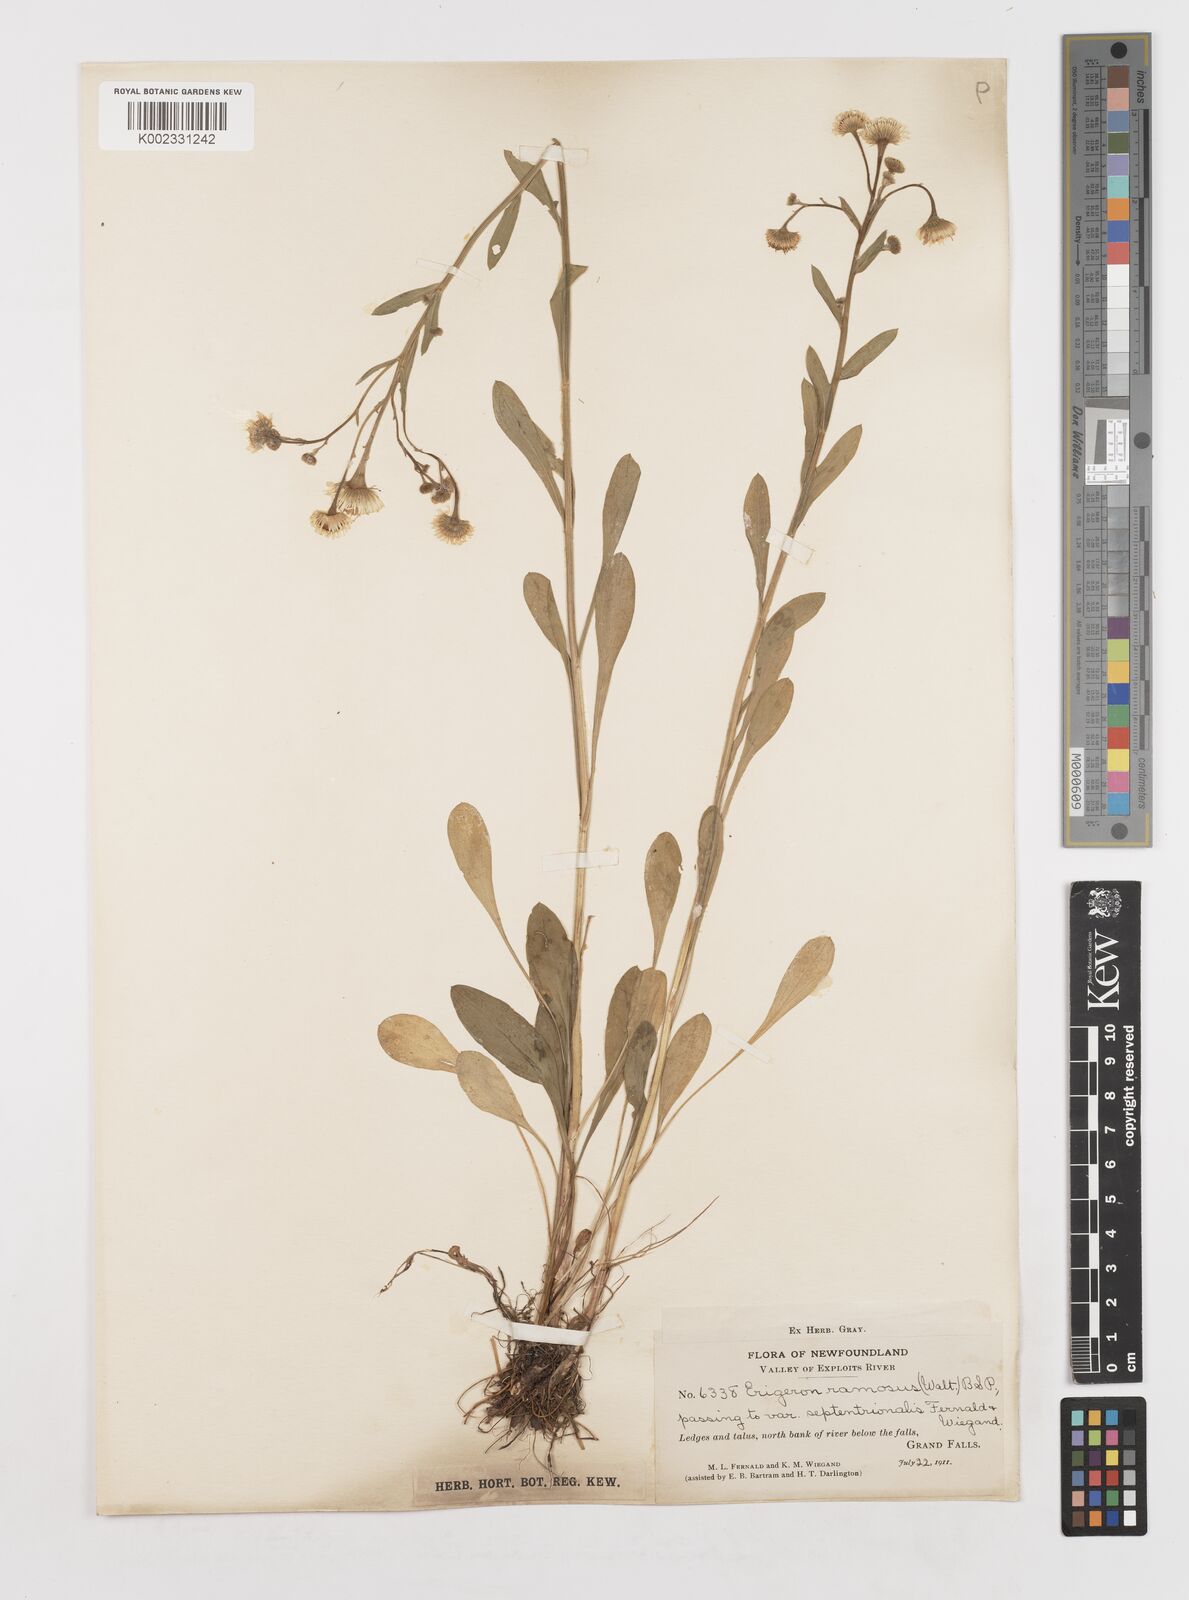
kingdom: Plantae
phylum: Tracheophyta
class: Magnoliopsida
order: Asterales
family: Asteraceae
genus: Erigeron
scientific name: Erigeron strigosus
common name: Common eastern fleabane
